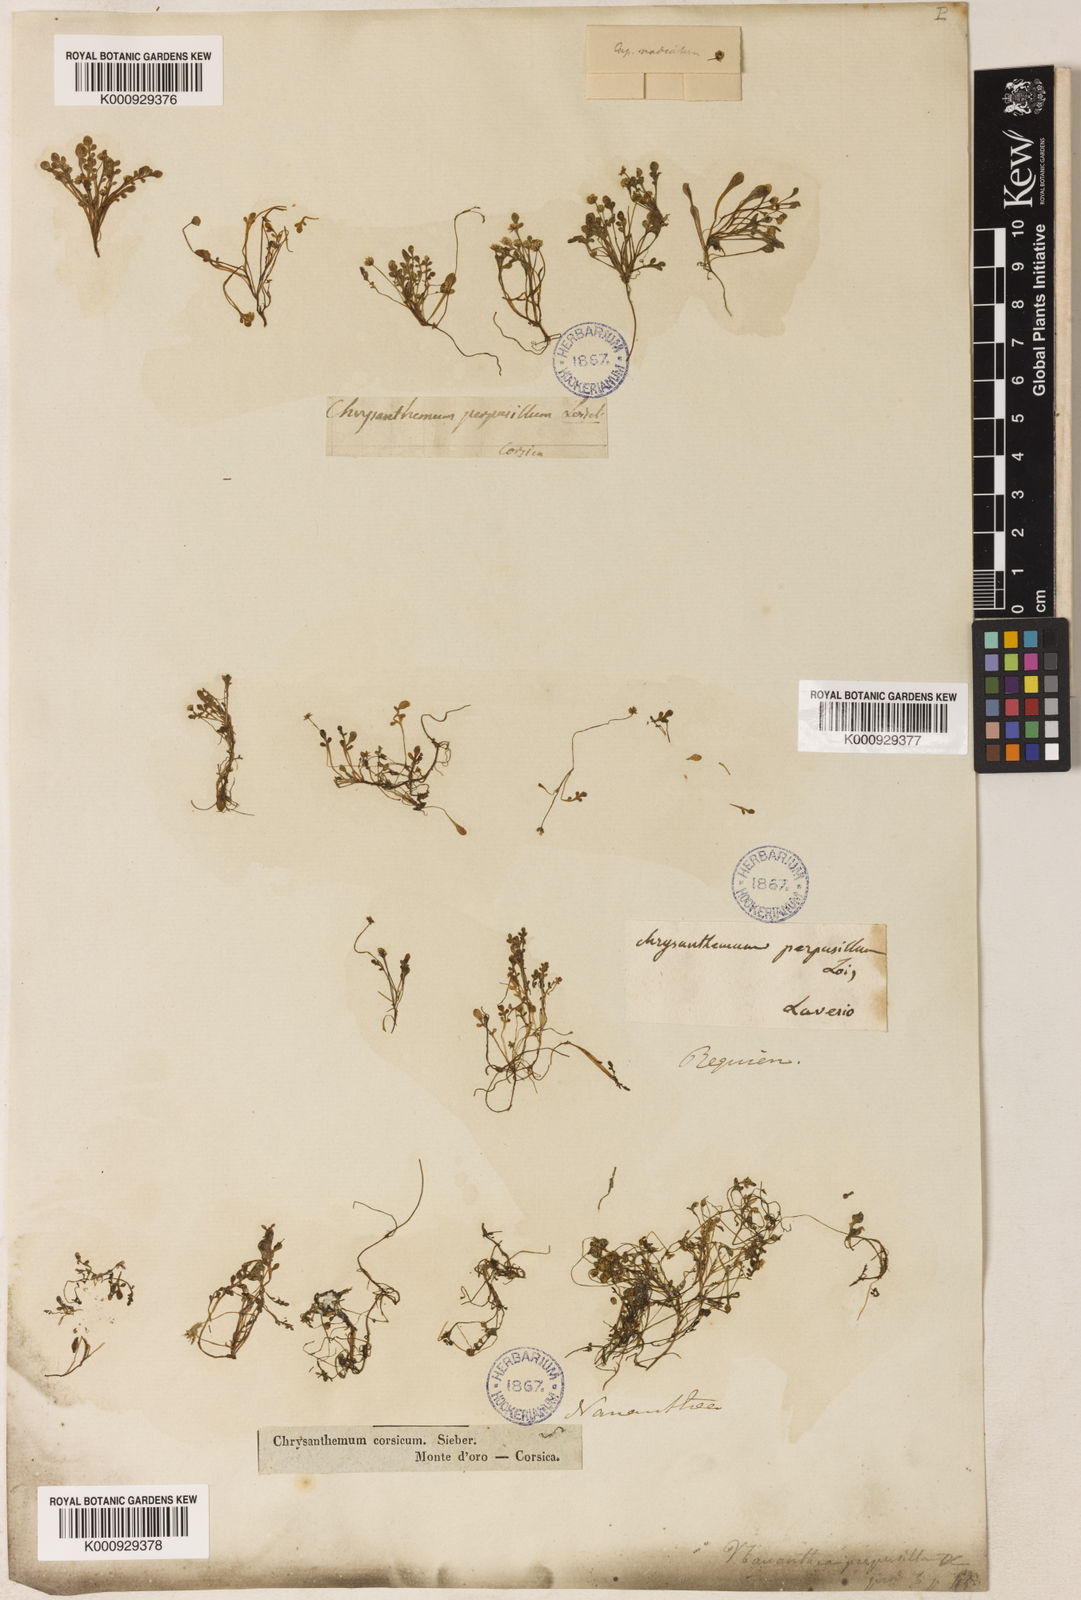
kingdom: Plantae
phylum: Tracheophyta
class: Magnoliopsida
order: Asterales
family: Asteraceae
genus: Nananthea
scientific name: Nananthea perpusilla
